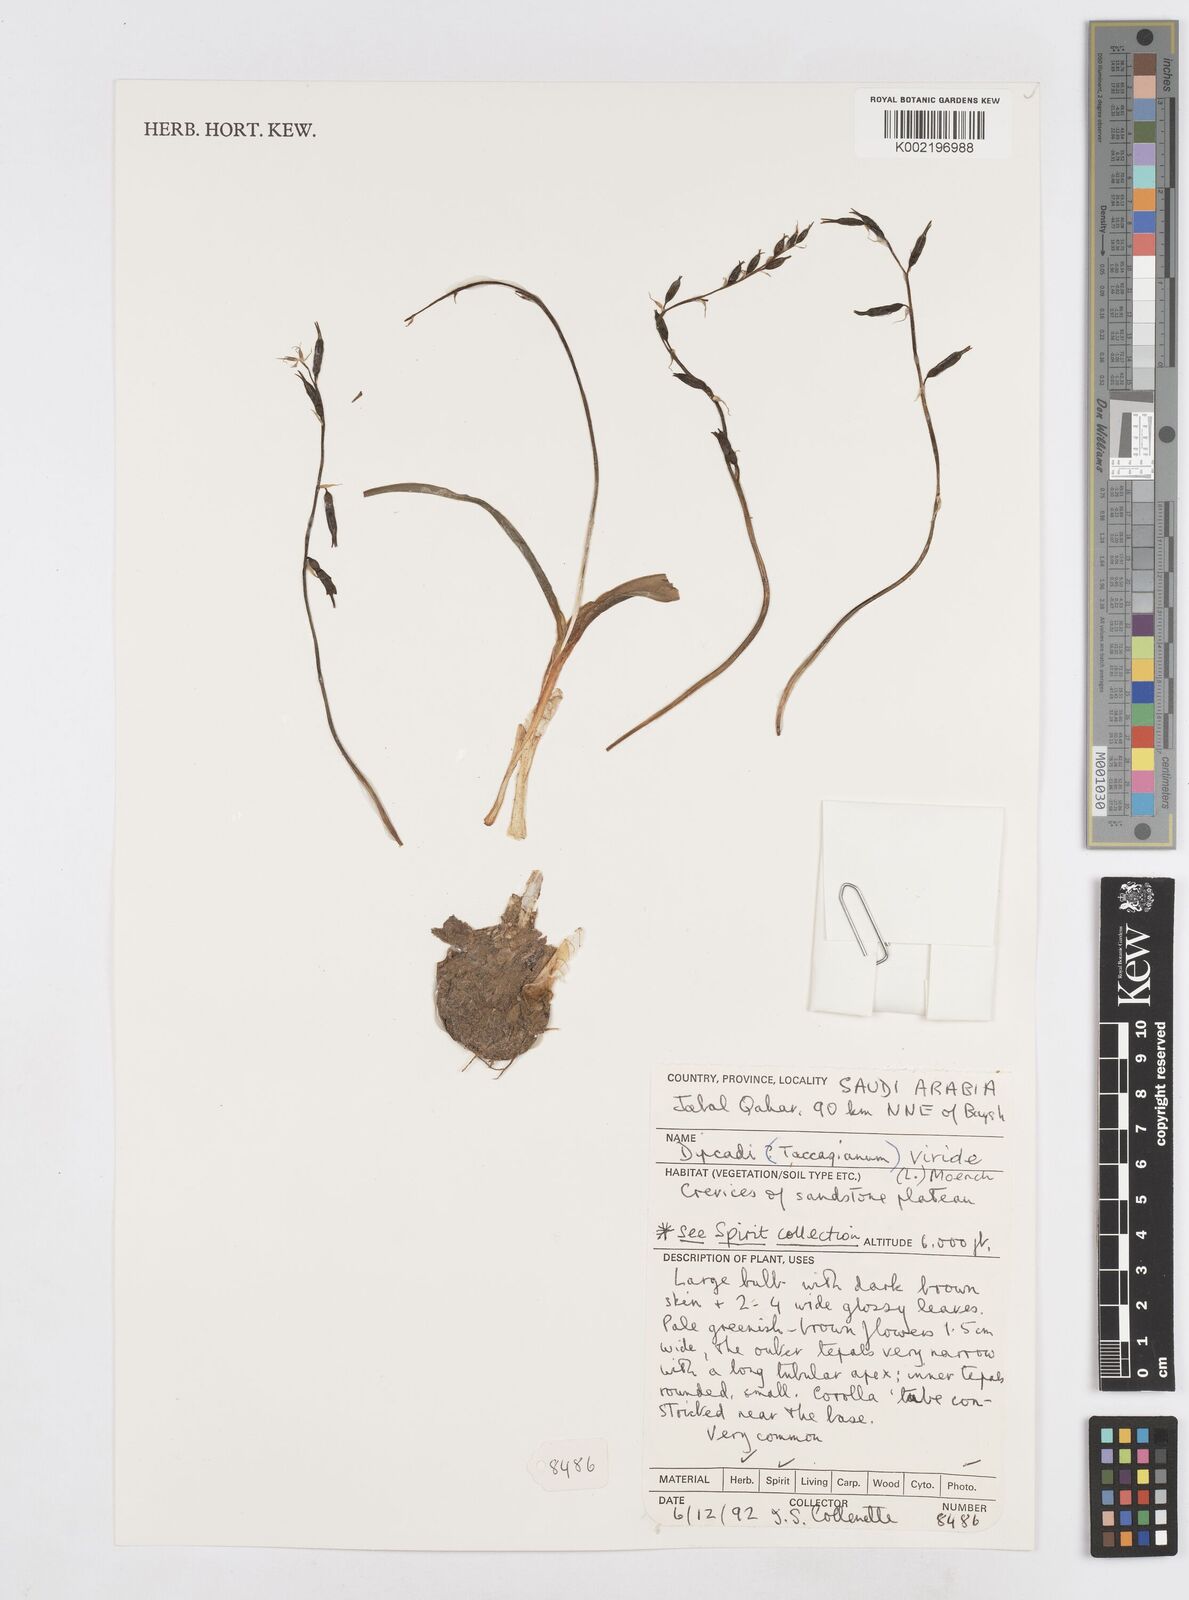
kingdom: Plantae
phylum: Tracheophyta
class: Liliopsida
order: Asparagales
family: Asparagaceae
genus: Dipcadi
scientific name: Dipcadi viride
